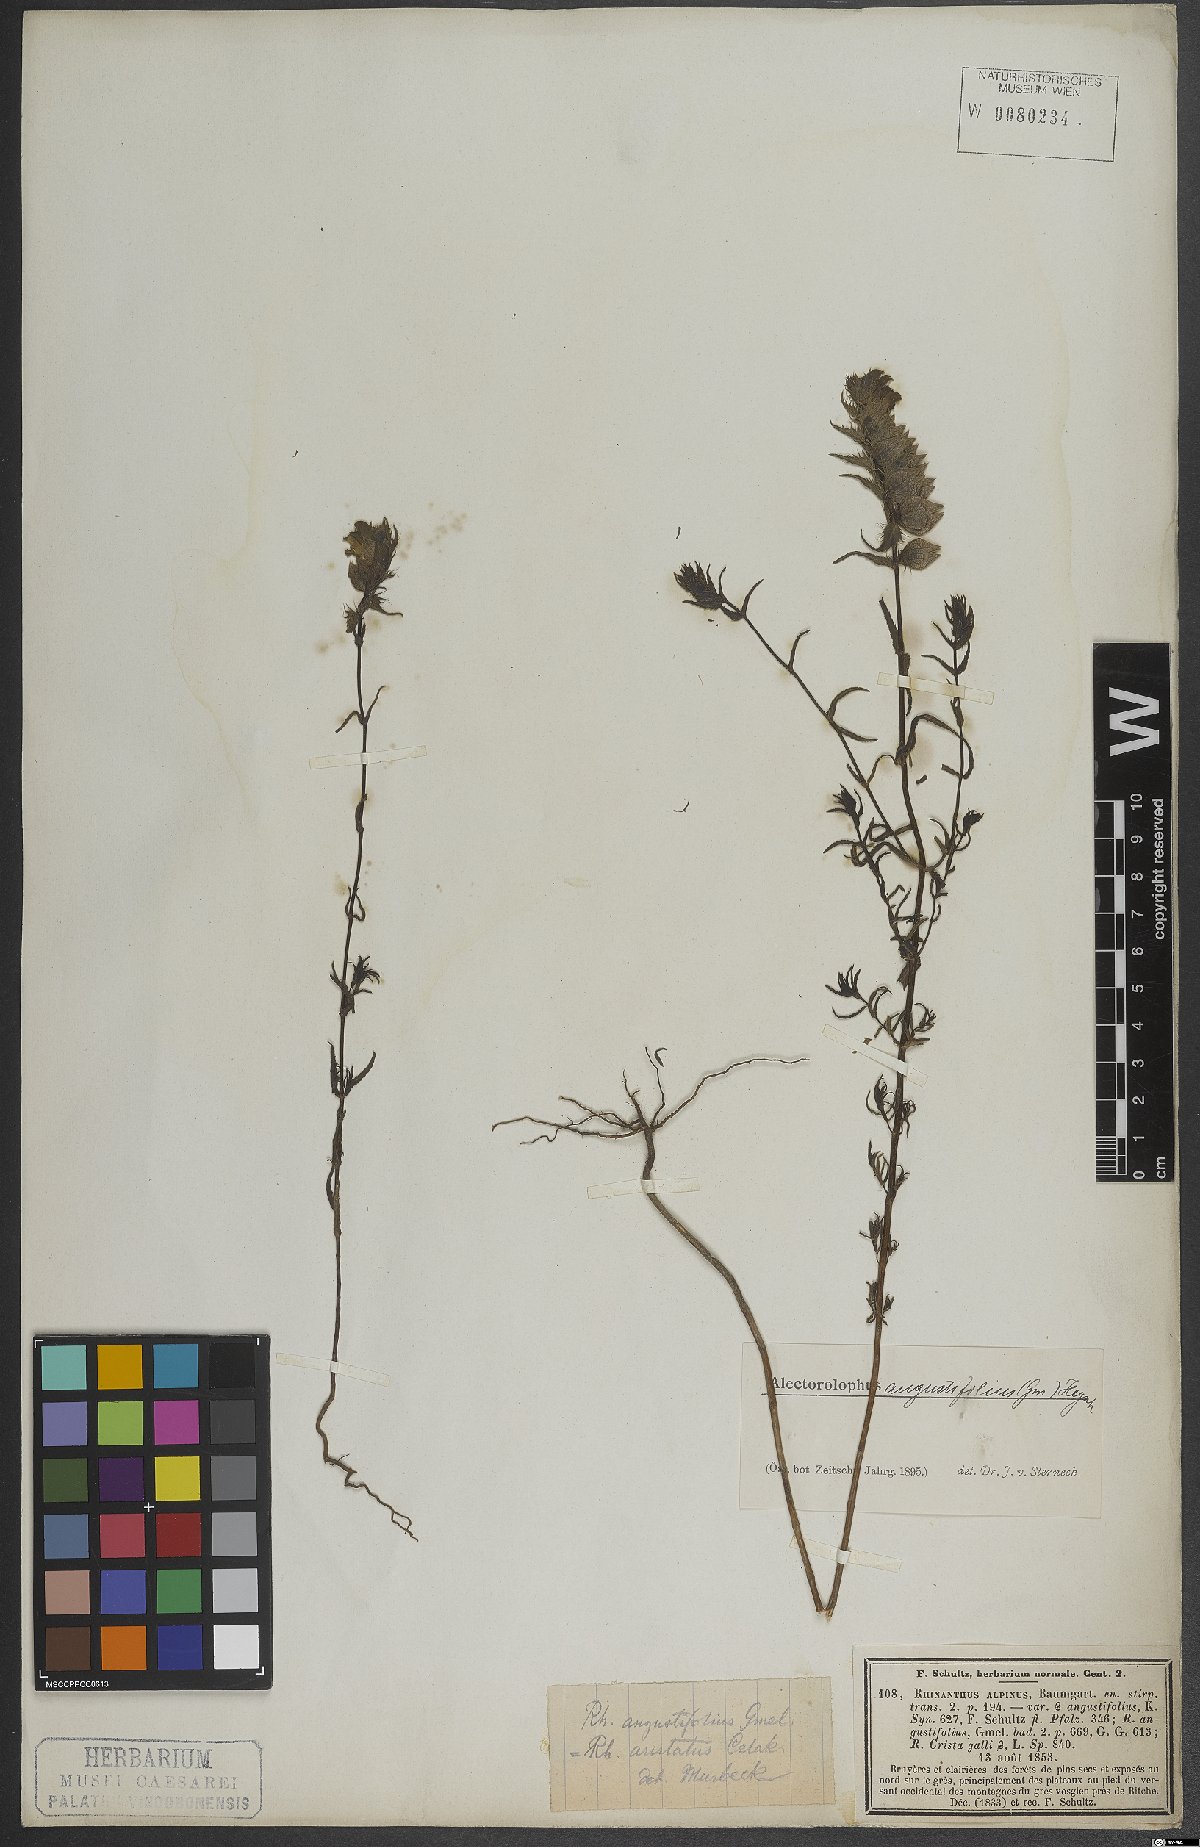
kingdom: Plantae
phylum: Tracheophyta
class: Magnoliopsida
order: Lamiales
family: Orobanchaceae
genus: Rhinanthus
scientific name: Rhinanthus glacialis
